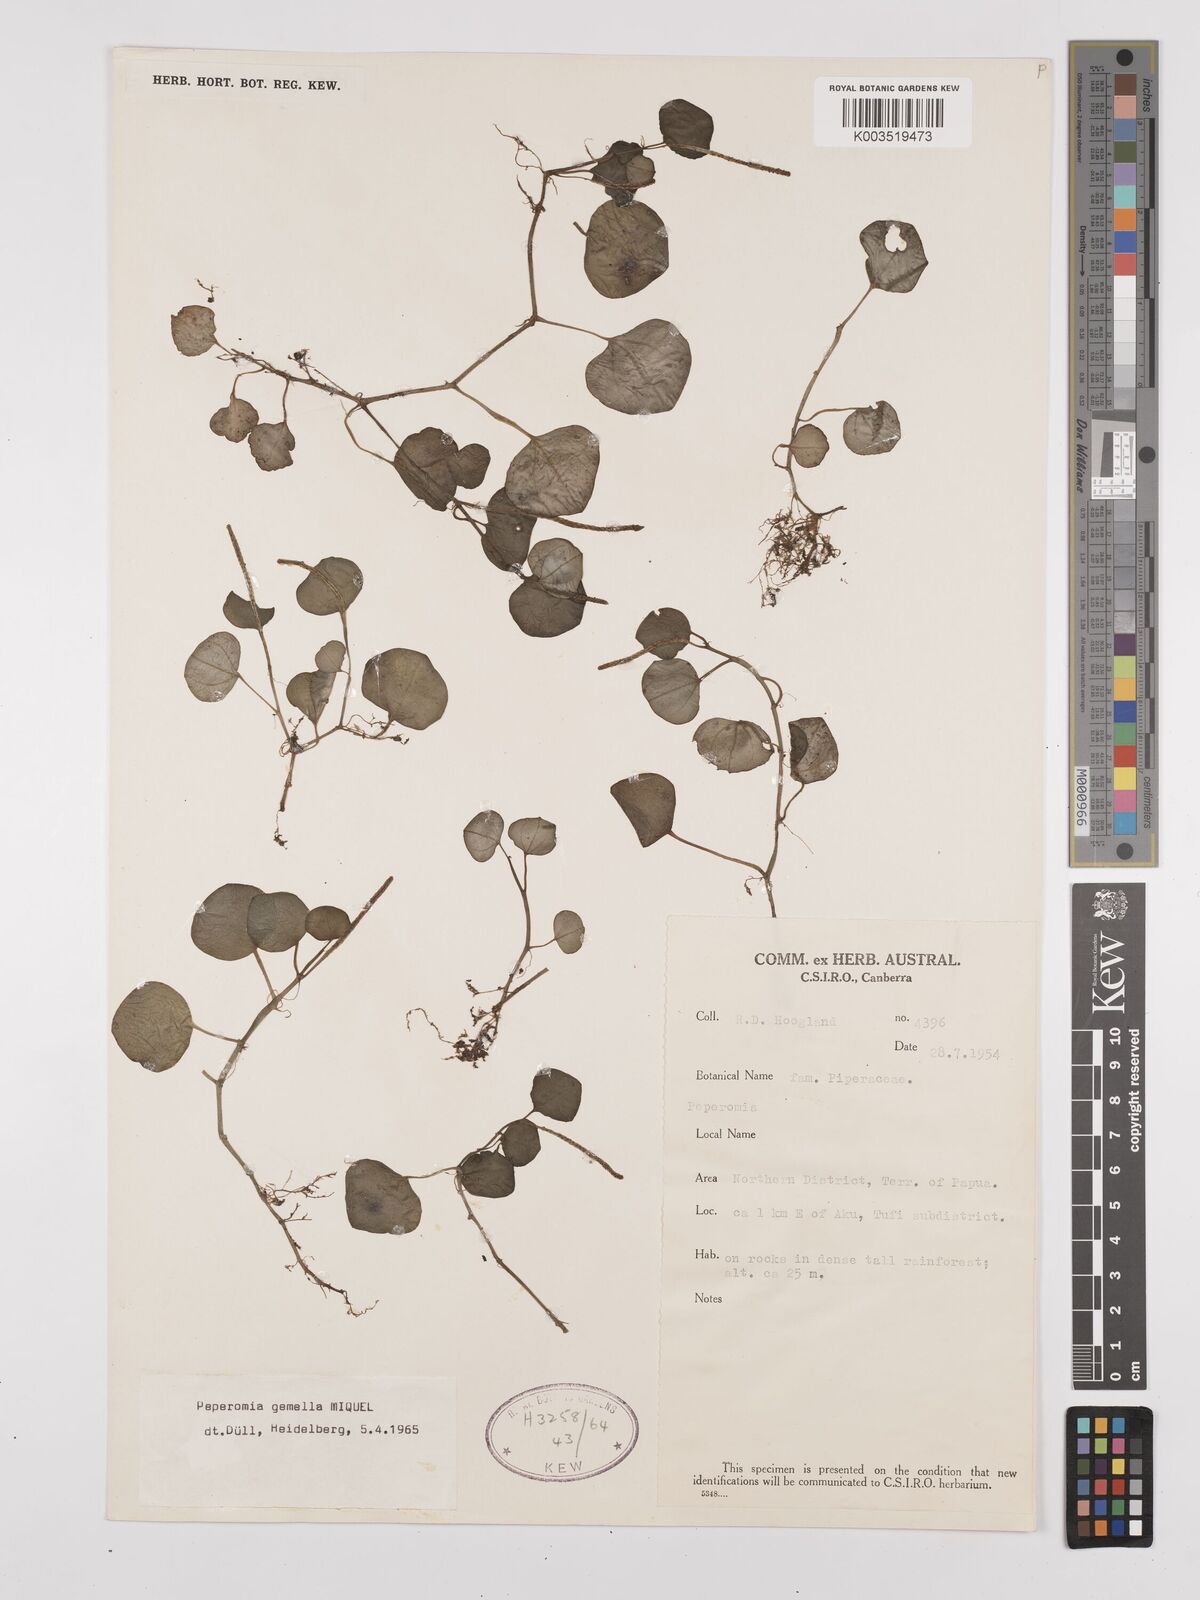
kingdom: Plantae
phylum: Tracheophyta
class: Magnoliopsida
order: Piperales
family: Piperaceae
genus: Peperomia
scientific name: Peperomia gemella
